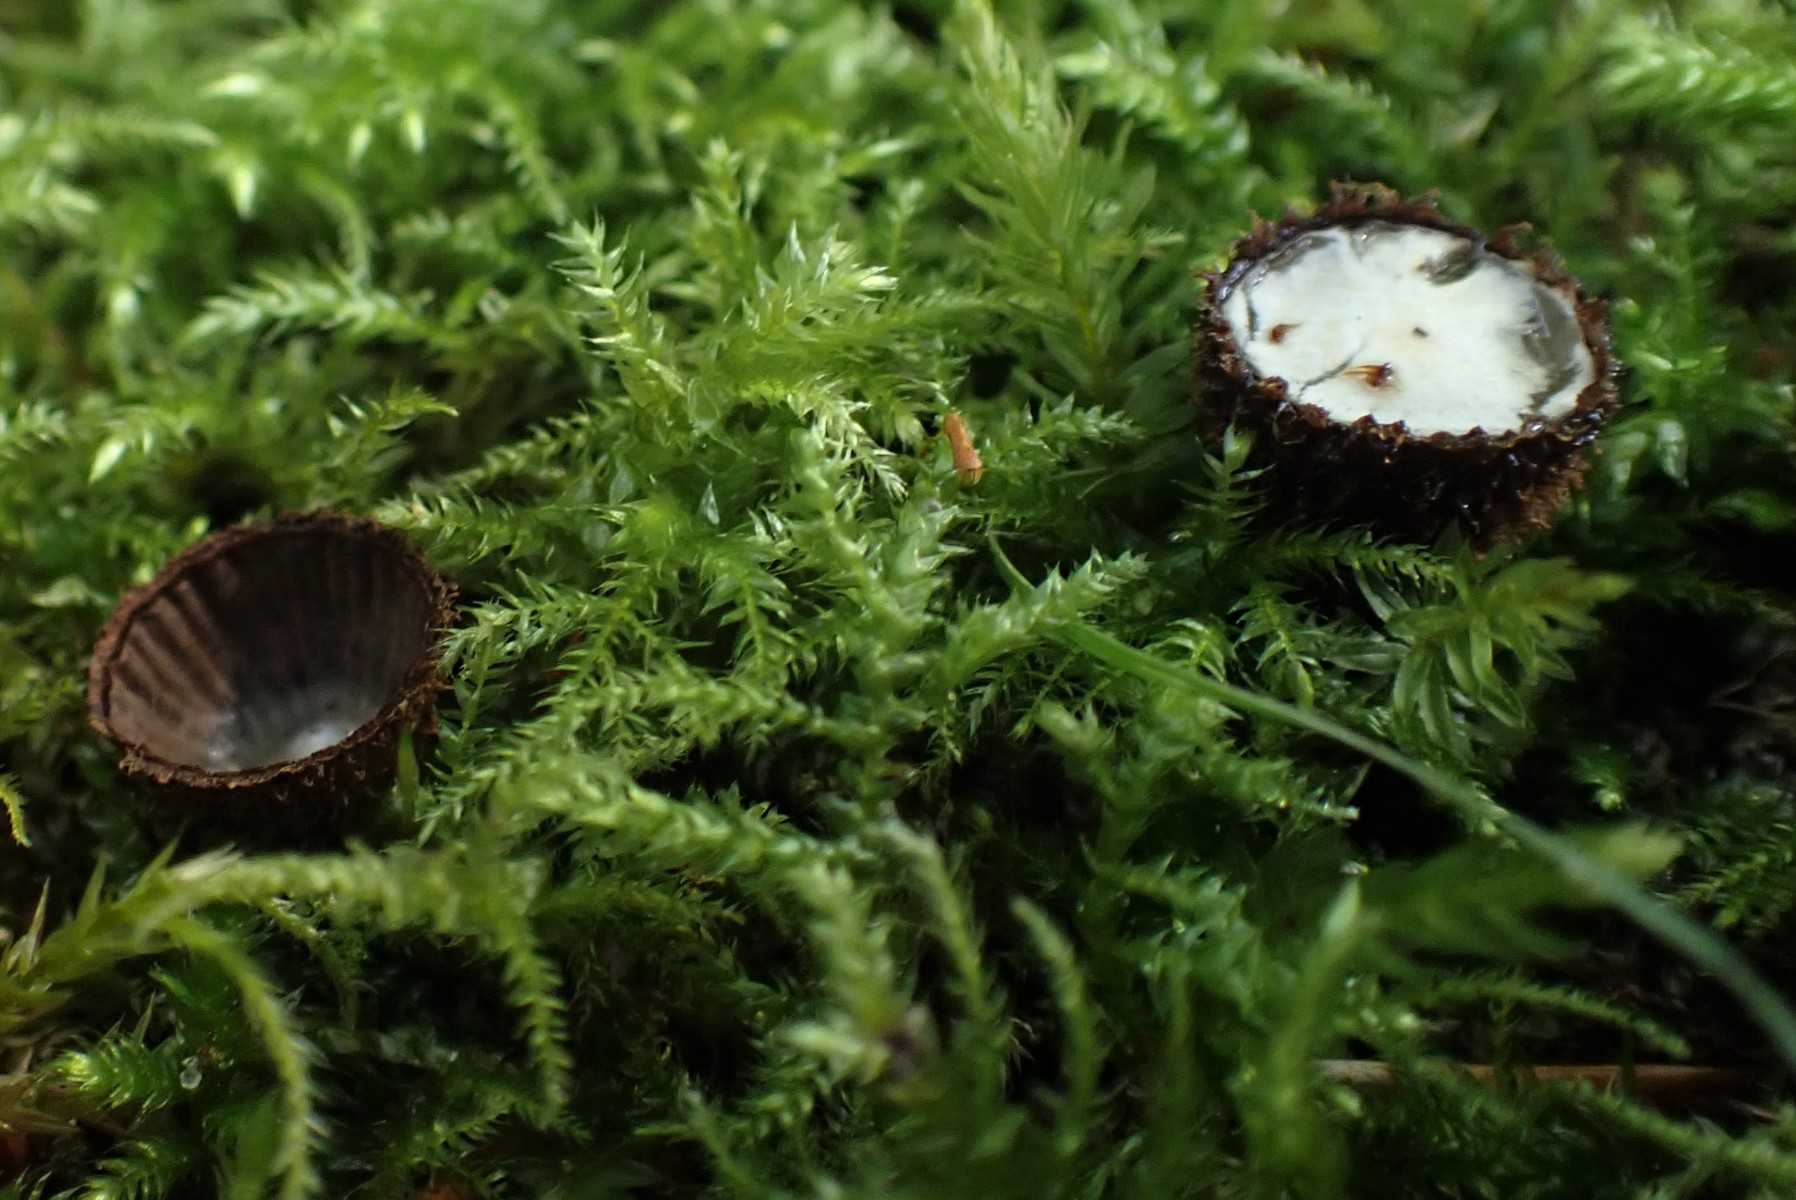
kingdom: Fungi
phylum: Basidiomycota
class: Agaricomycetes
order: Agaricales
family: Agaricaceae
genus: Cyathus
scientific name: Cyathus striatus
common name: stribet redesvamp
